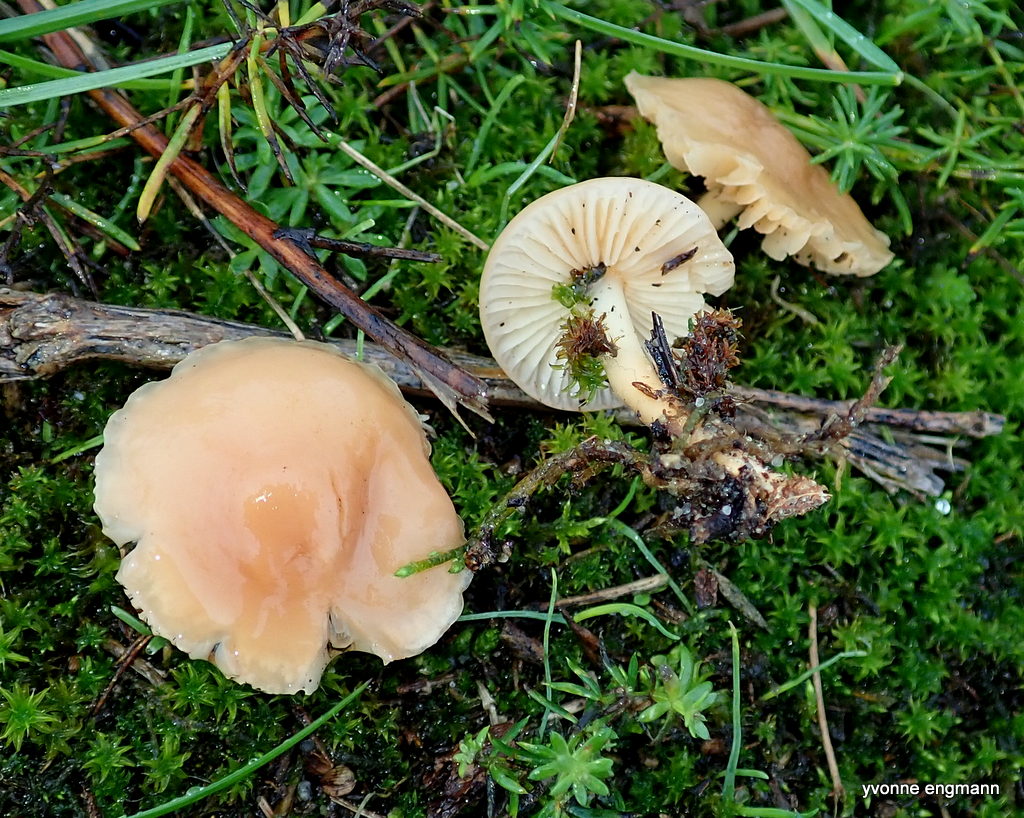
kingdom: Fungi
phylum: Basidiomycota
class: Agaricomycetes
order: Agaricales
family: Marasmiaceae
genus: Marasmius
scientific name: Marasmius oreades
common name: elledans-bruskhat
